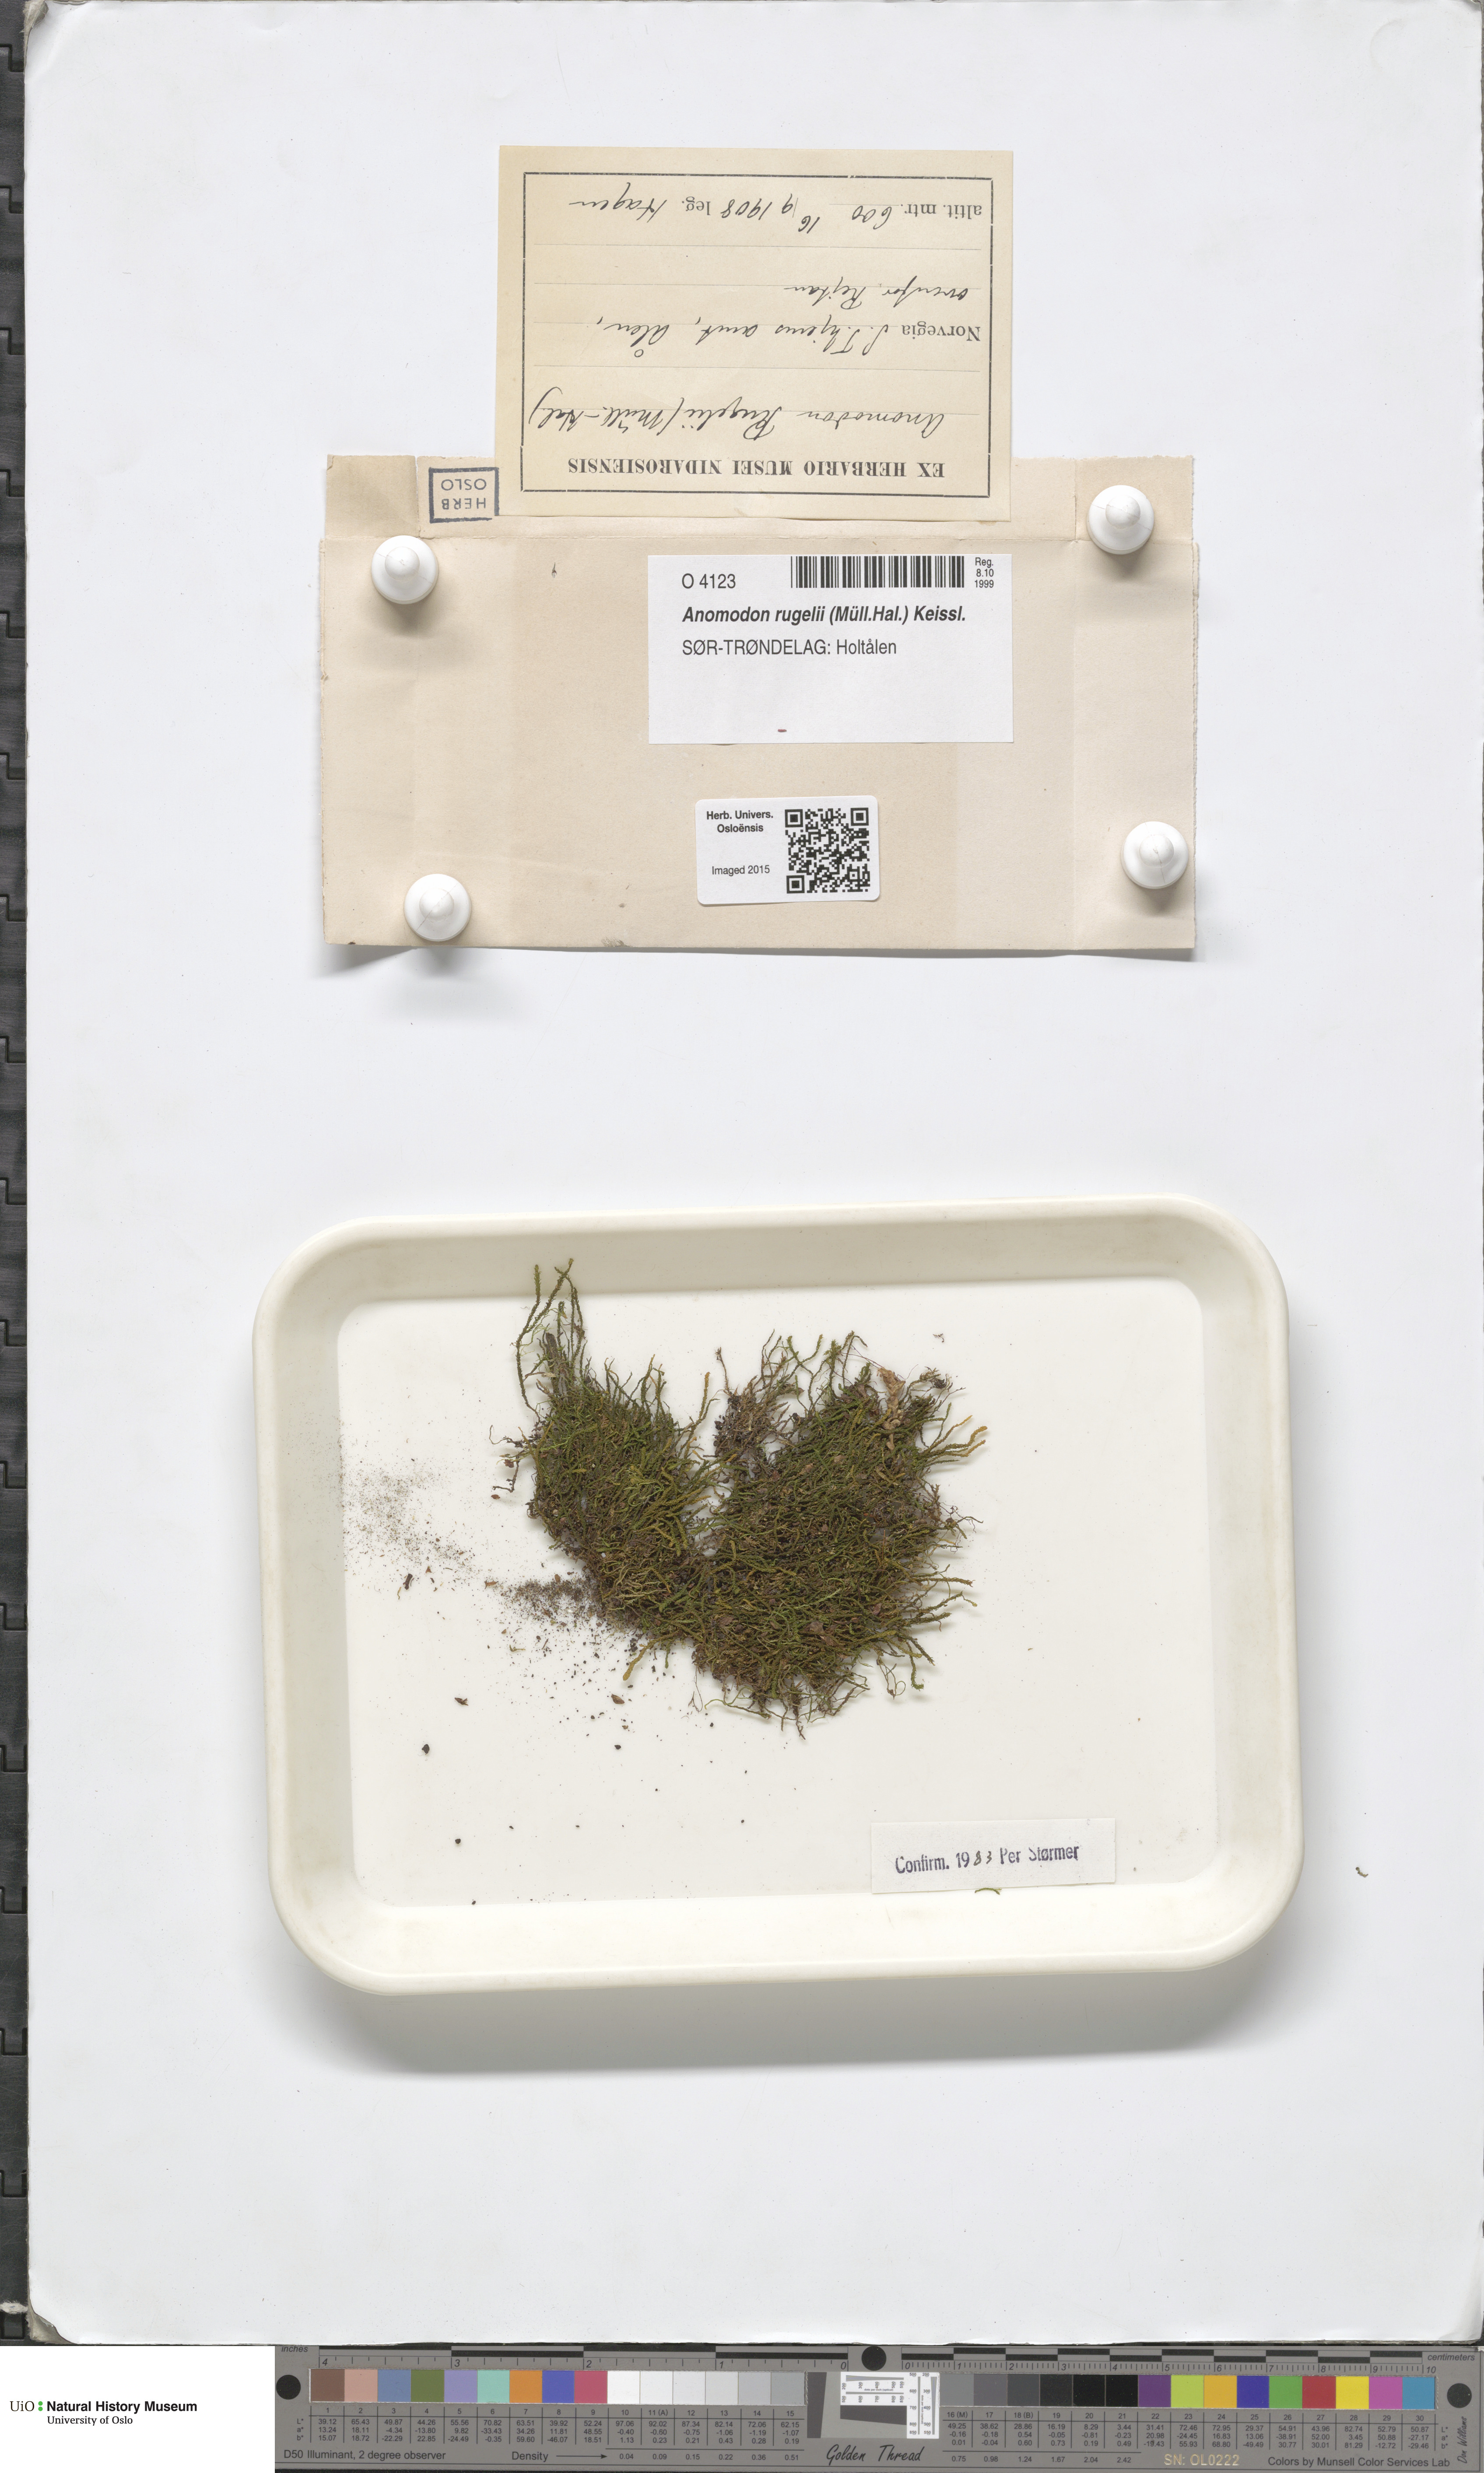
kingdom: Plantae
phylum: Bryophyta
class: Bryopsida
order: Hypnales
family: Anomodontaceae
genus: Anomodontopsis
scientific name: Anomodontopsis rugelii
